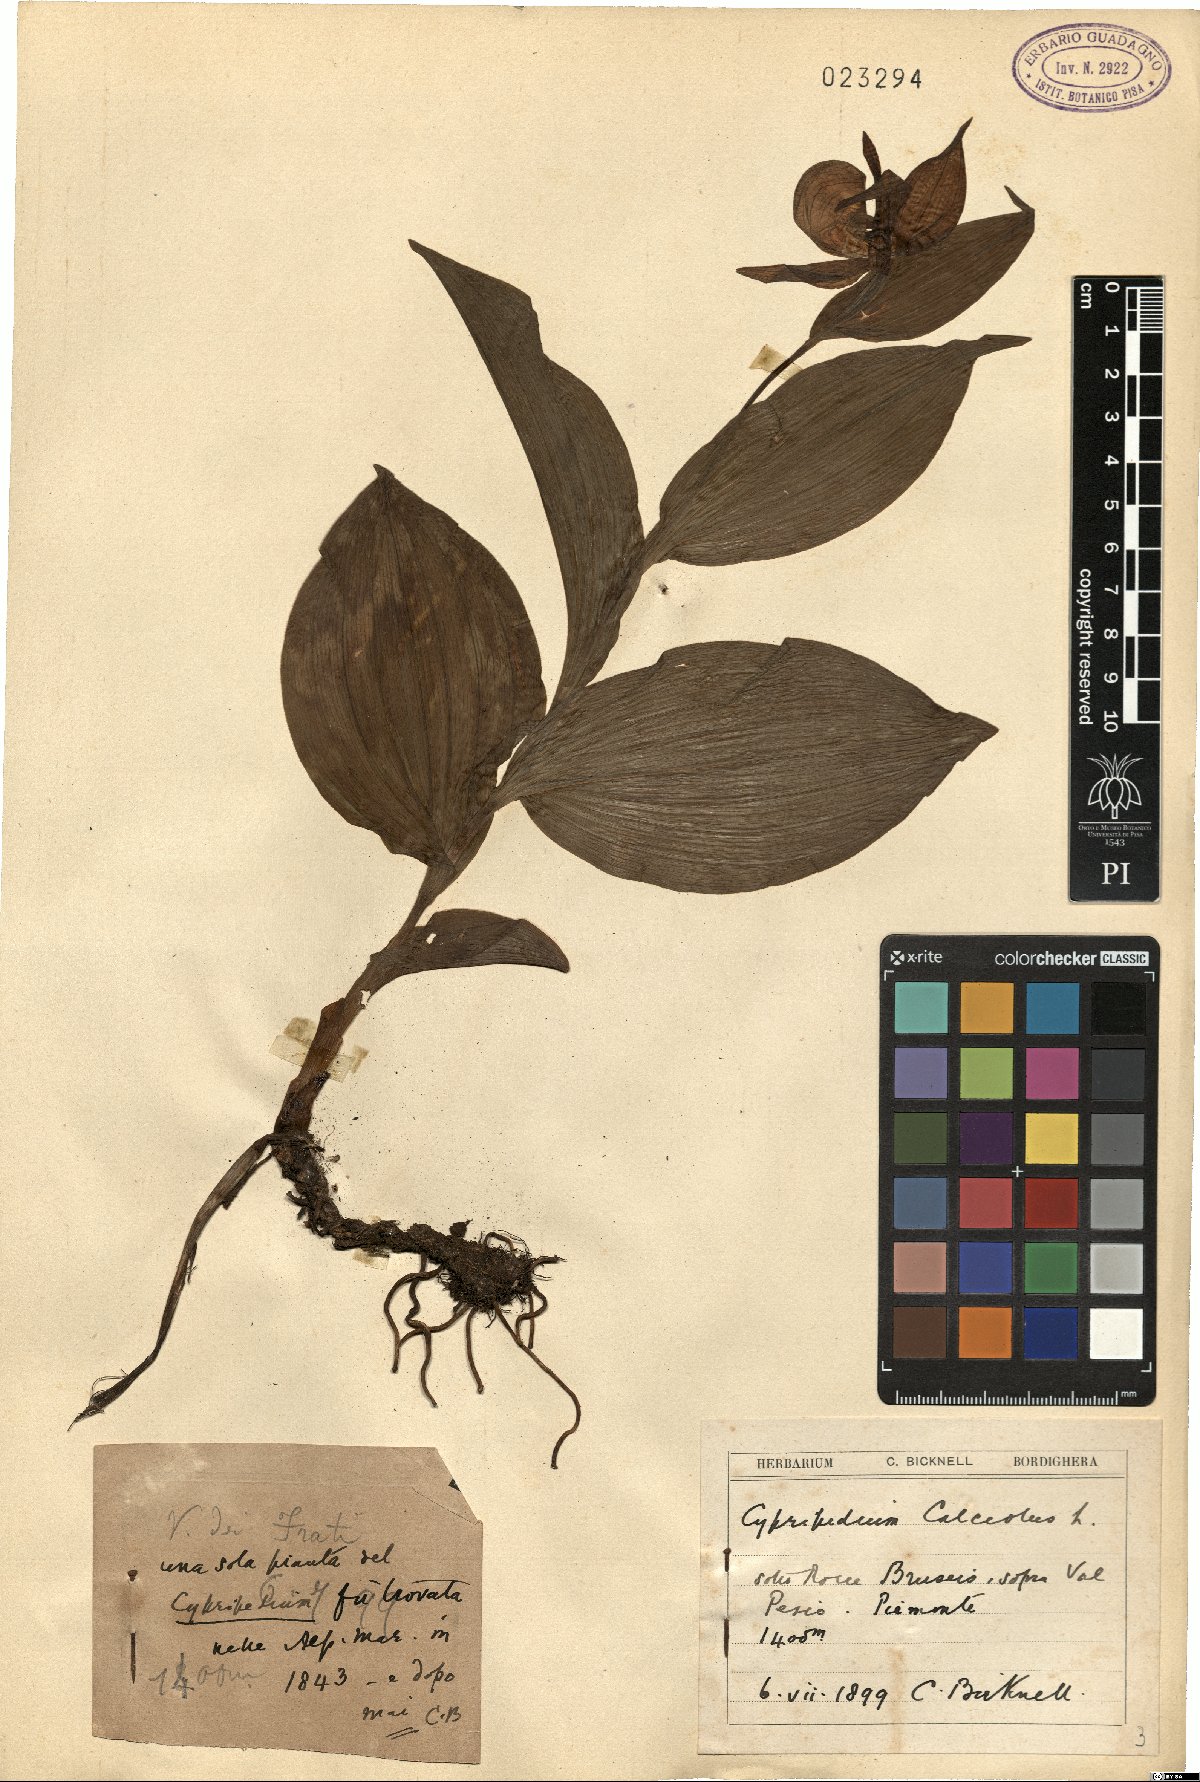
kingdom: Plantae
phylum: Tracheophyta
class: Liliopsida
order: Asparagales
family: Orchidaceae
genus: Cypripedium
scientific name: Cypripedium calceolus
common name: Lady's-slipper
